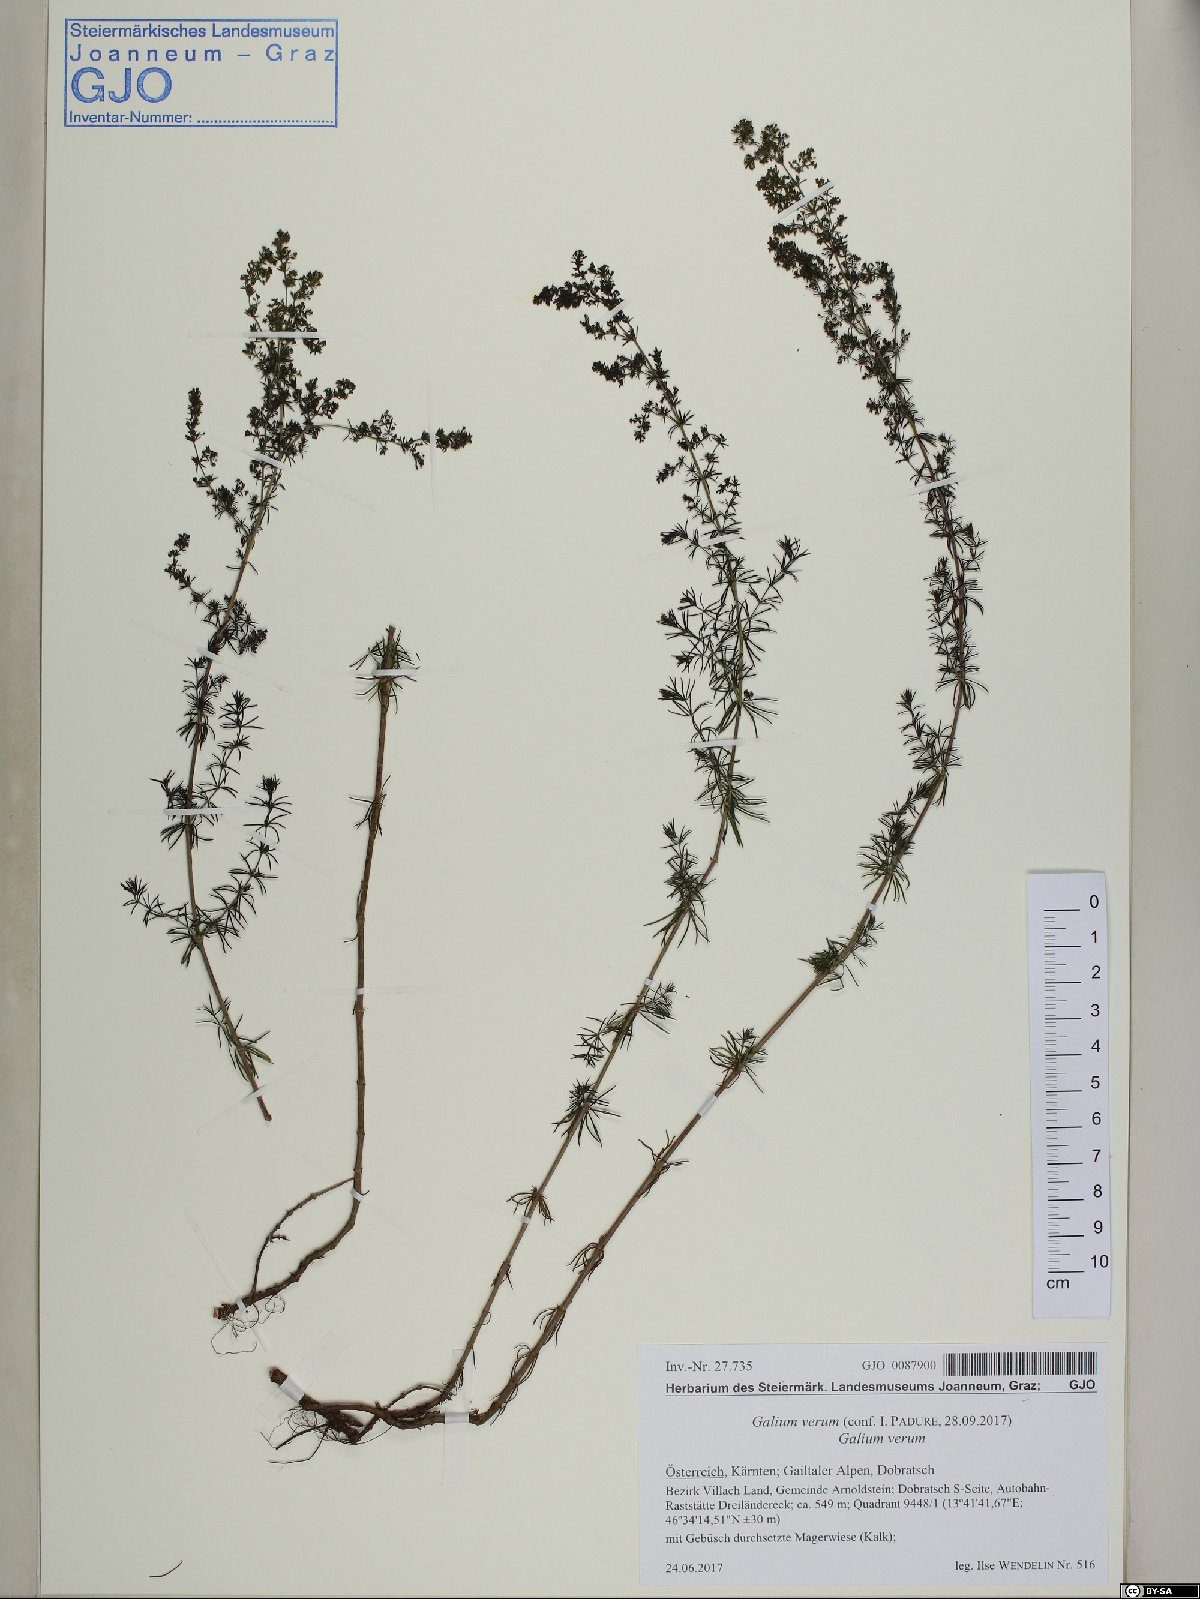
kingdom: Plantae
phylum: Tracheophyta
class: Magnoliopsida
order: Gentianales
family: Rubiaceae
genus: Galium
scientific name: Galium verum
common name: Lady's bedstraw
